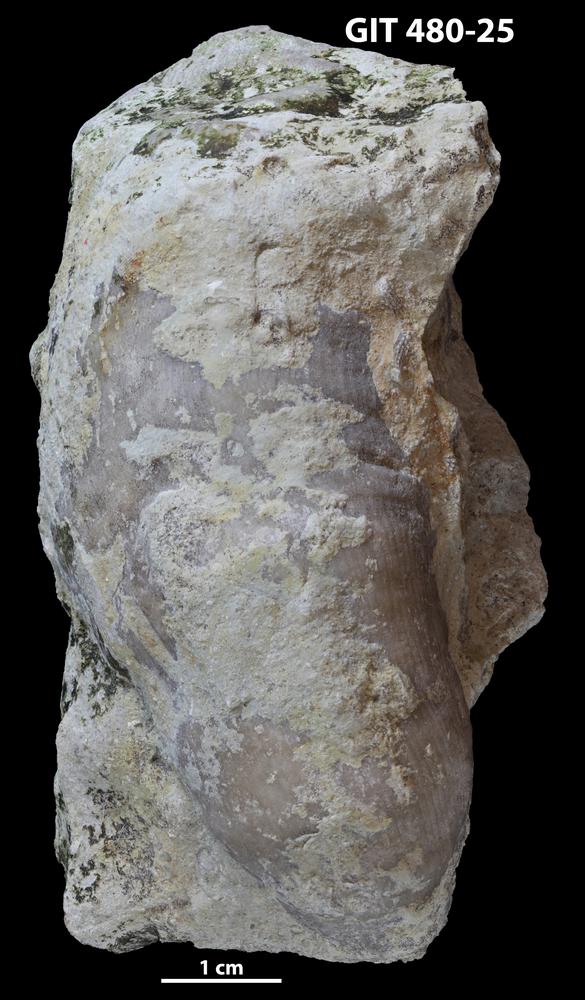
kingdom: Animalia
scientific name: Animalia
